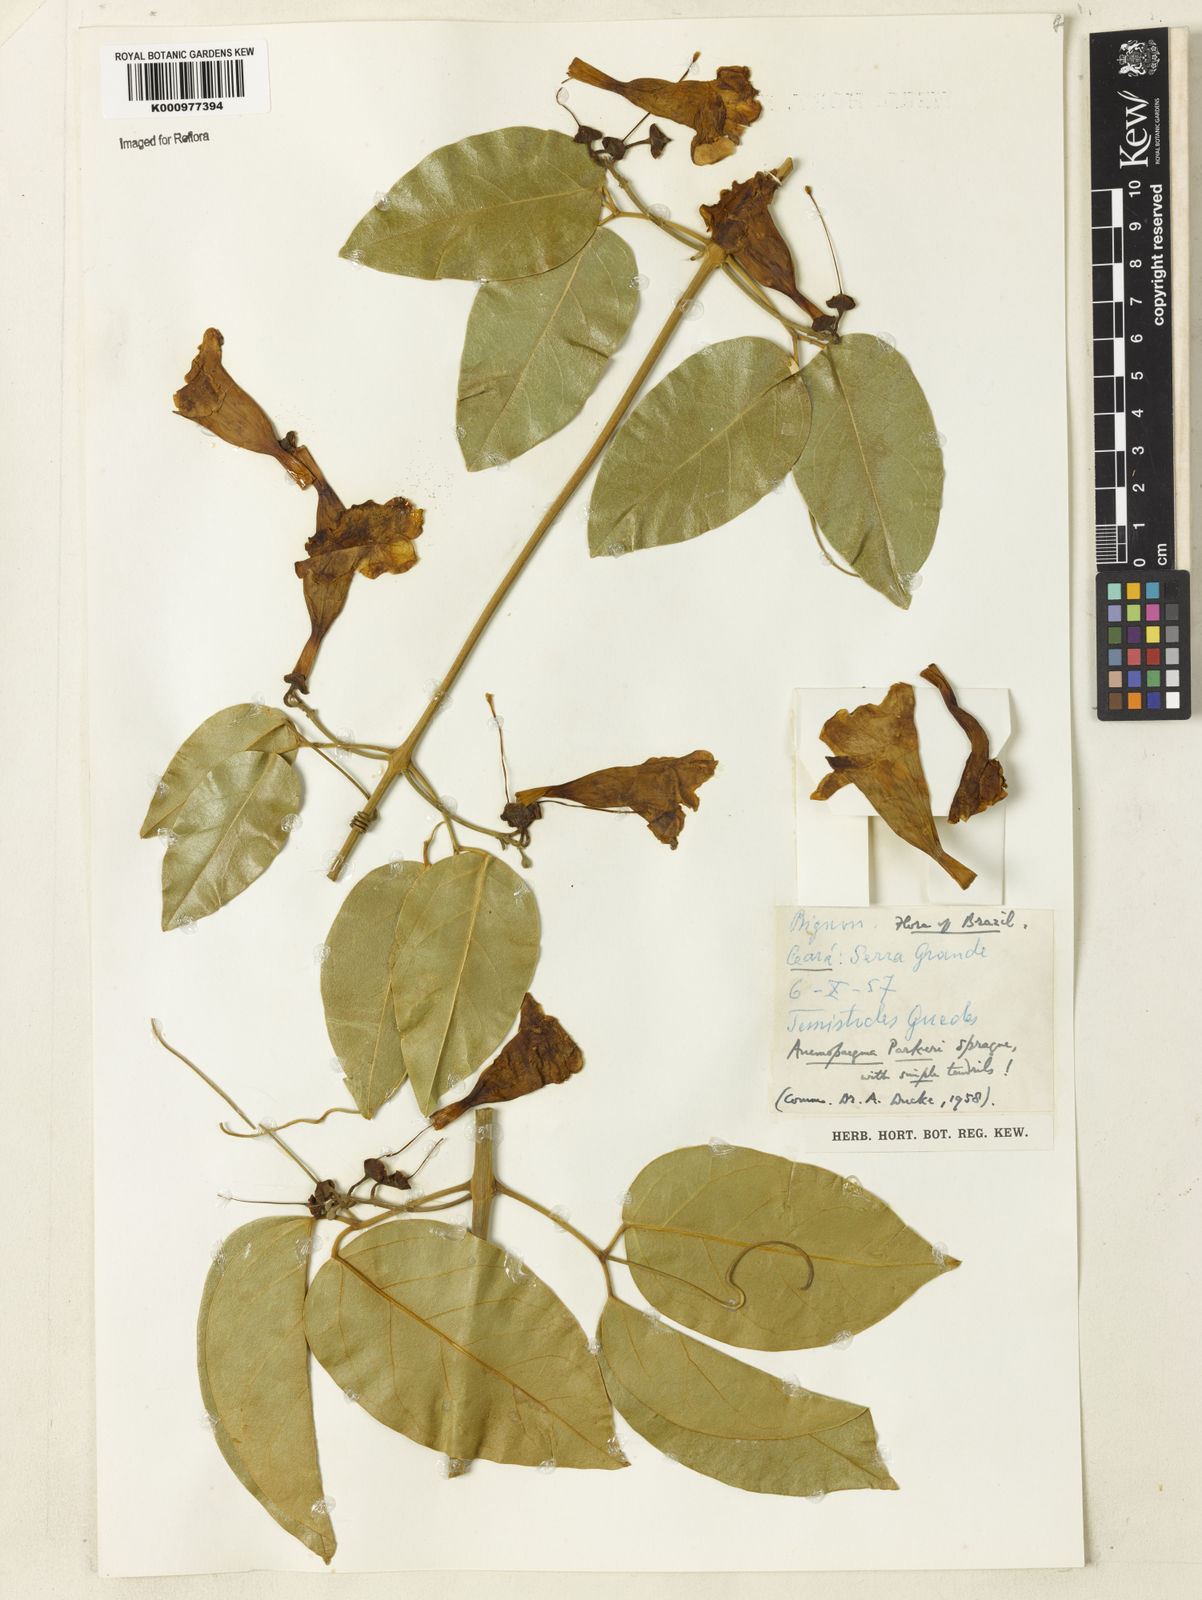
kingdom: Plantae
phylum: Tracheophyta
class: Magnoliopsida
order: Lamiales
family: Bignoniaceae
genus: Anemopaegma
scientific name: Anemopaegma parkeri
